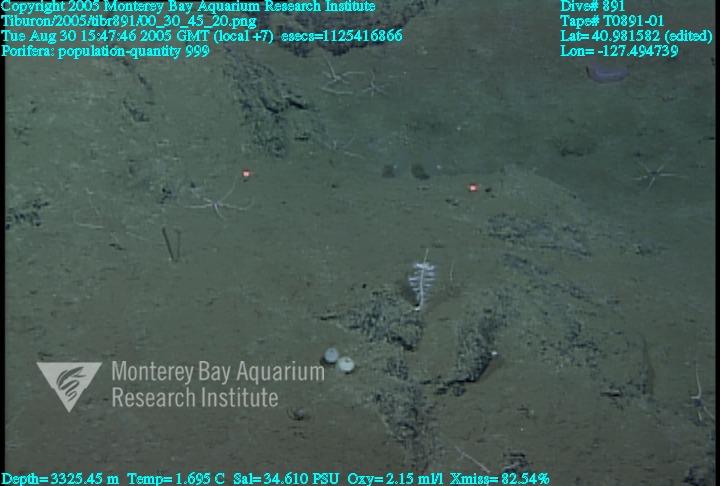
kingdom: Animalia
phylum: Porifera
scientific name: Porifera
